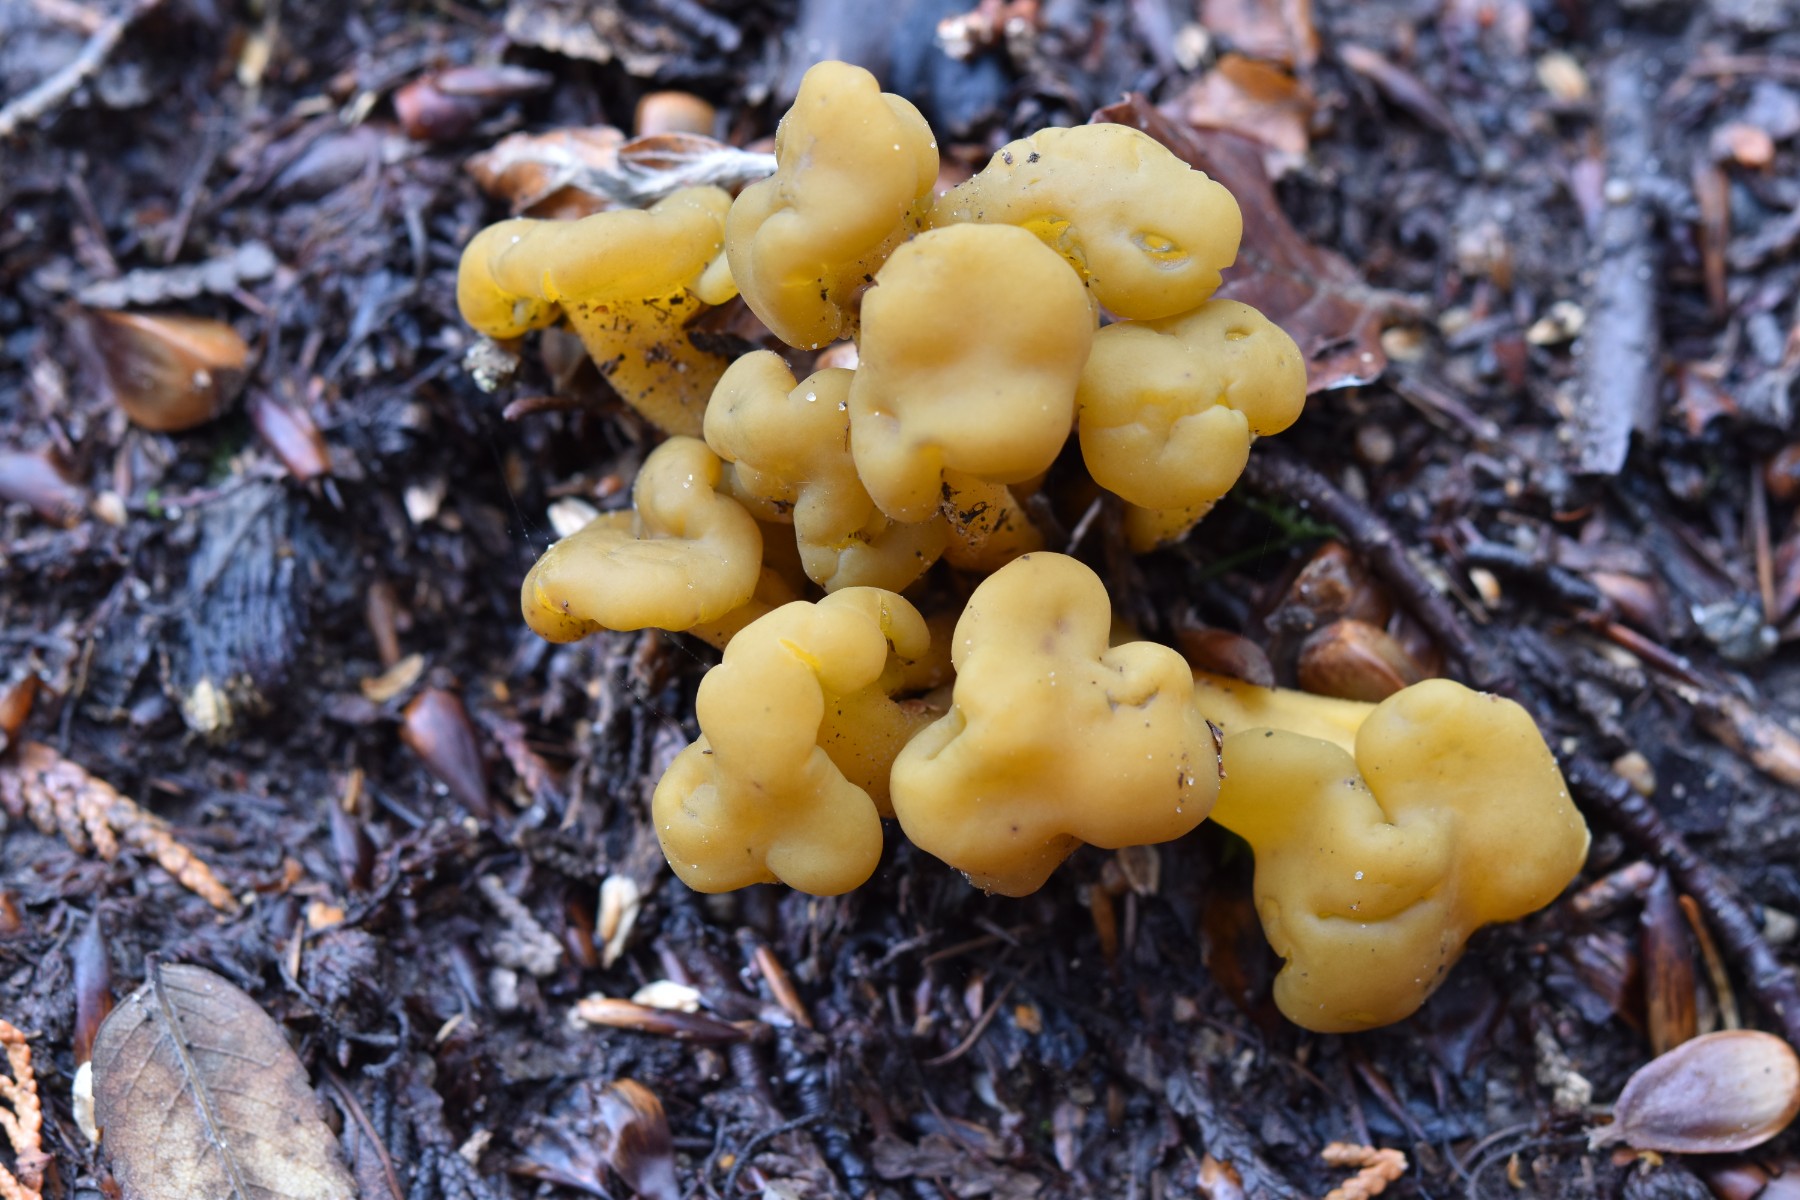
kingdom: Fungi
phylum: Ascomycota
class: Leotiomycetes
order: Leotiales
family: Leotiaceae
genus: Leotia
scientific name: Leotia lubrica
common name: ravsvamp
